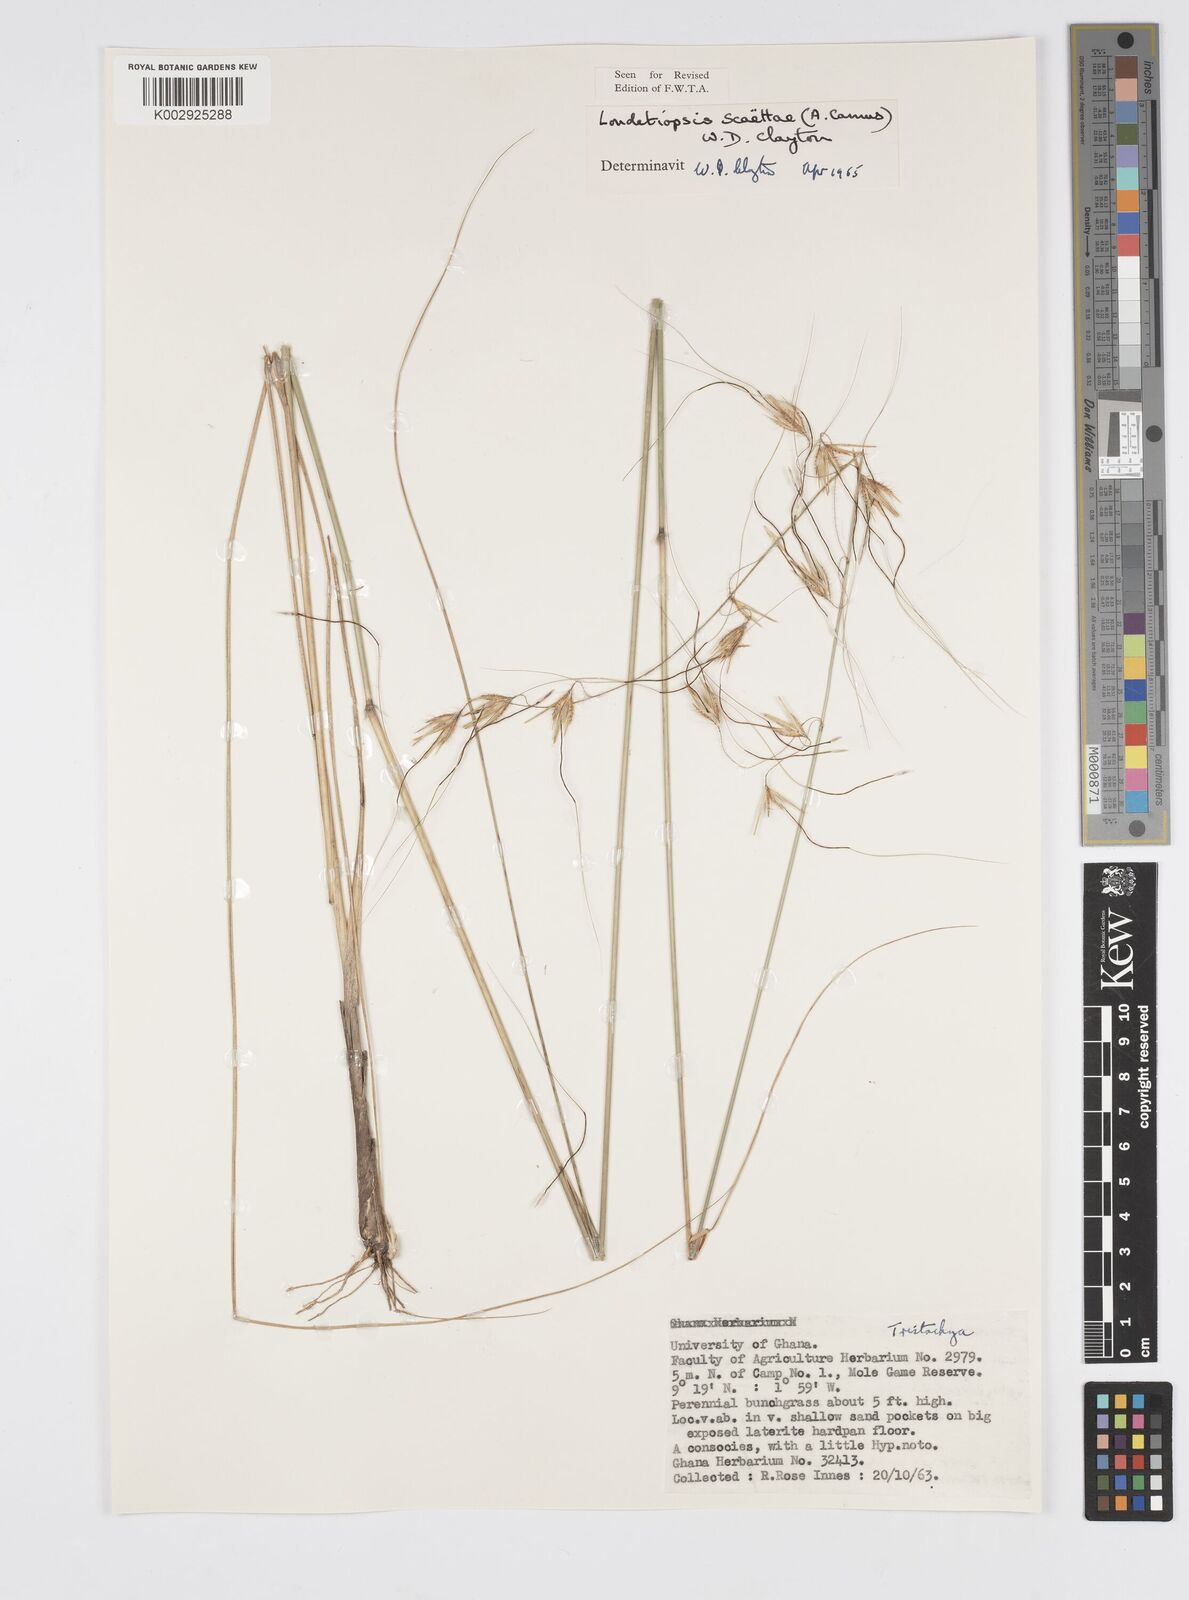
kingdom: Plantae
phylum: Tracheophyta
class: Liliopsida
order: Poales
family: Poaceae
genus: Loudetiopsis
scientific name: Loudetiopsis scaettae
